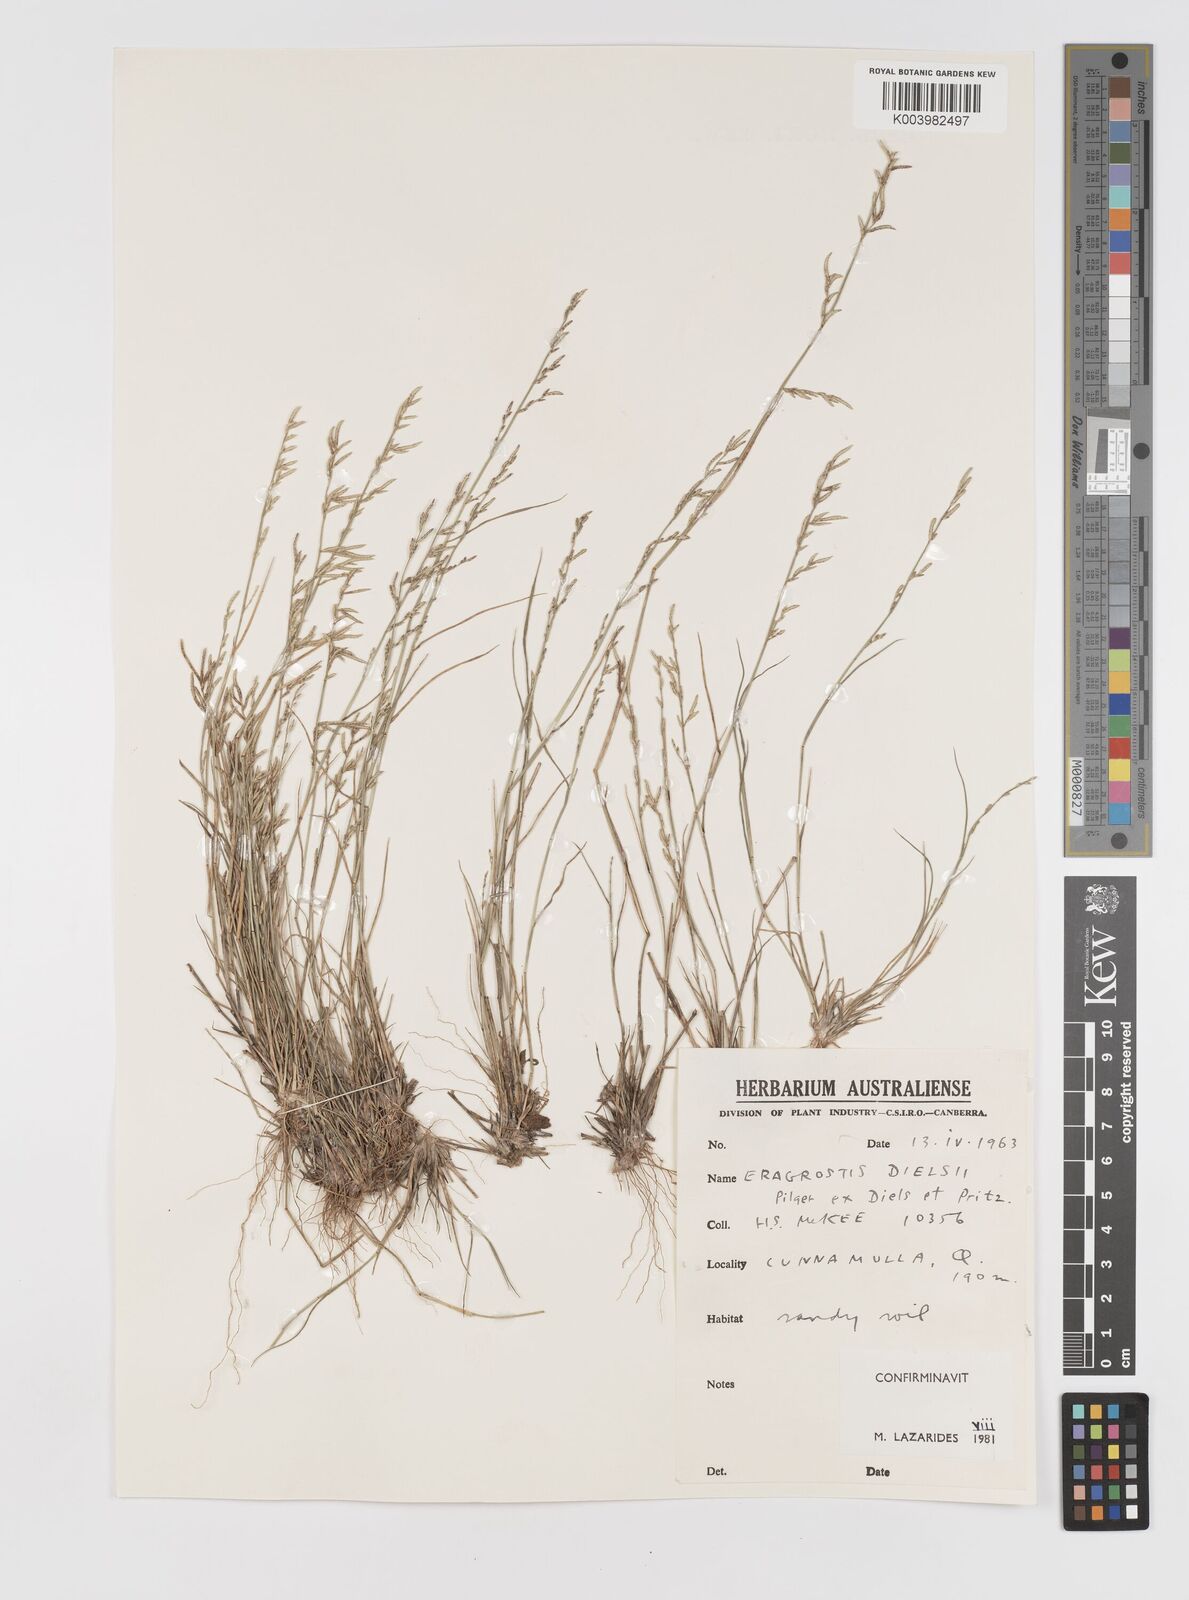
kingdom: Plantae
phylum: Tracheophyta
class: Liliopsida
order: Poales
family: Poaceae
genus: Eragrostis
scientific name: Eragrostis dielsii
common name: Lovegrass
